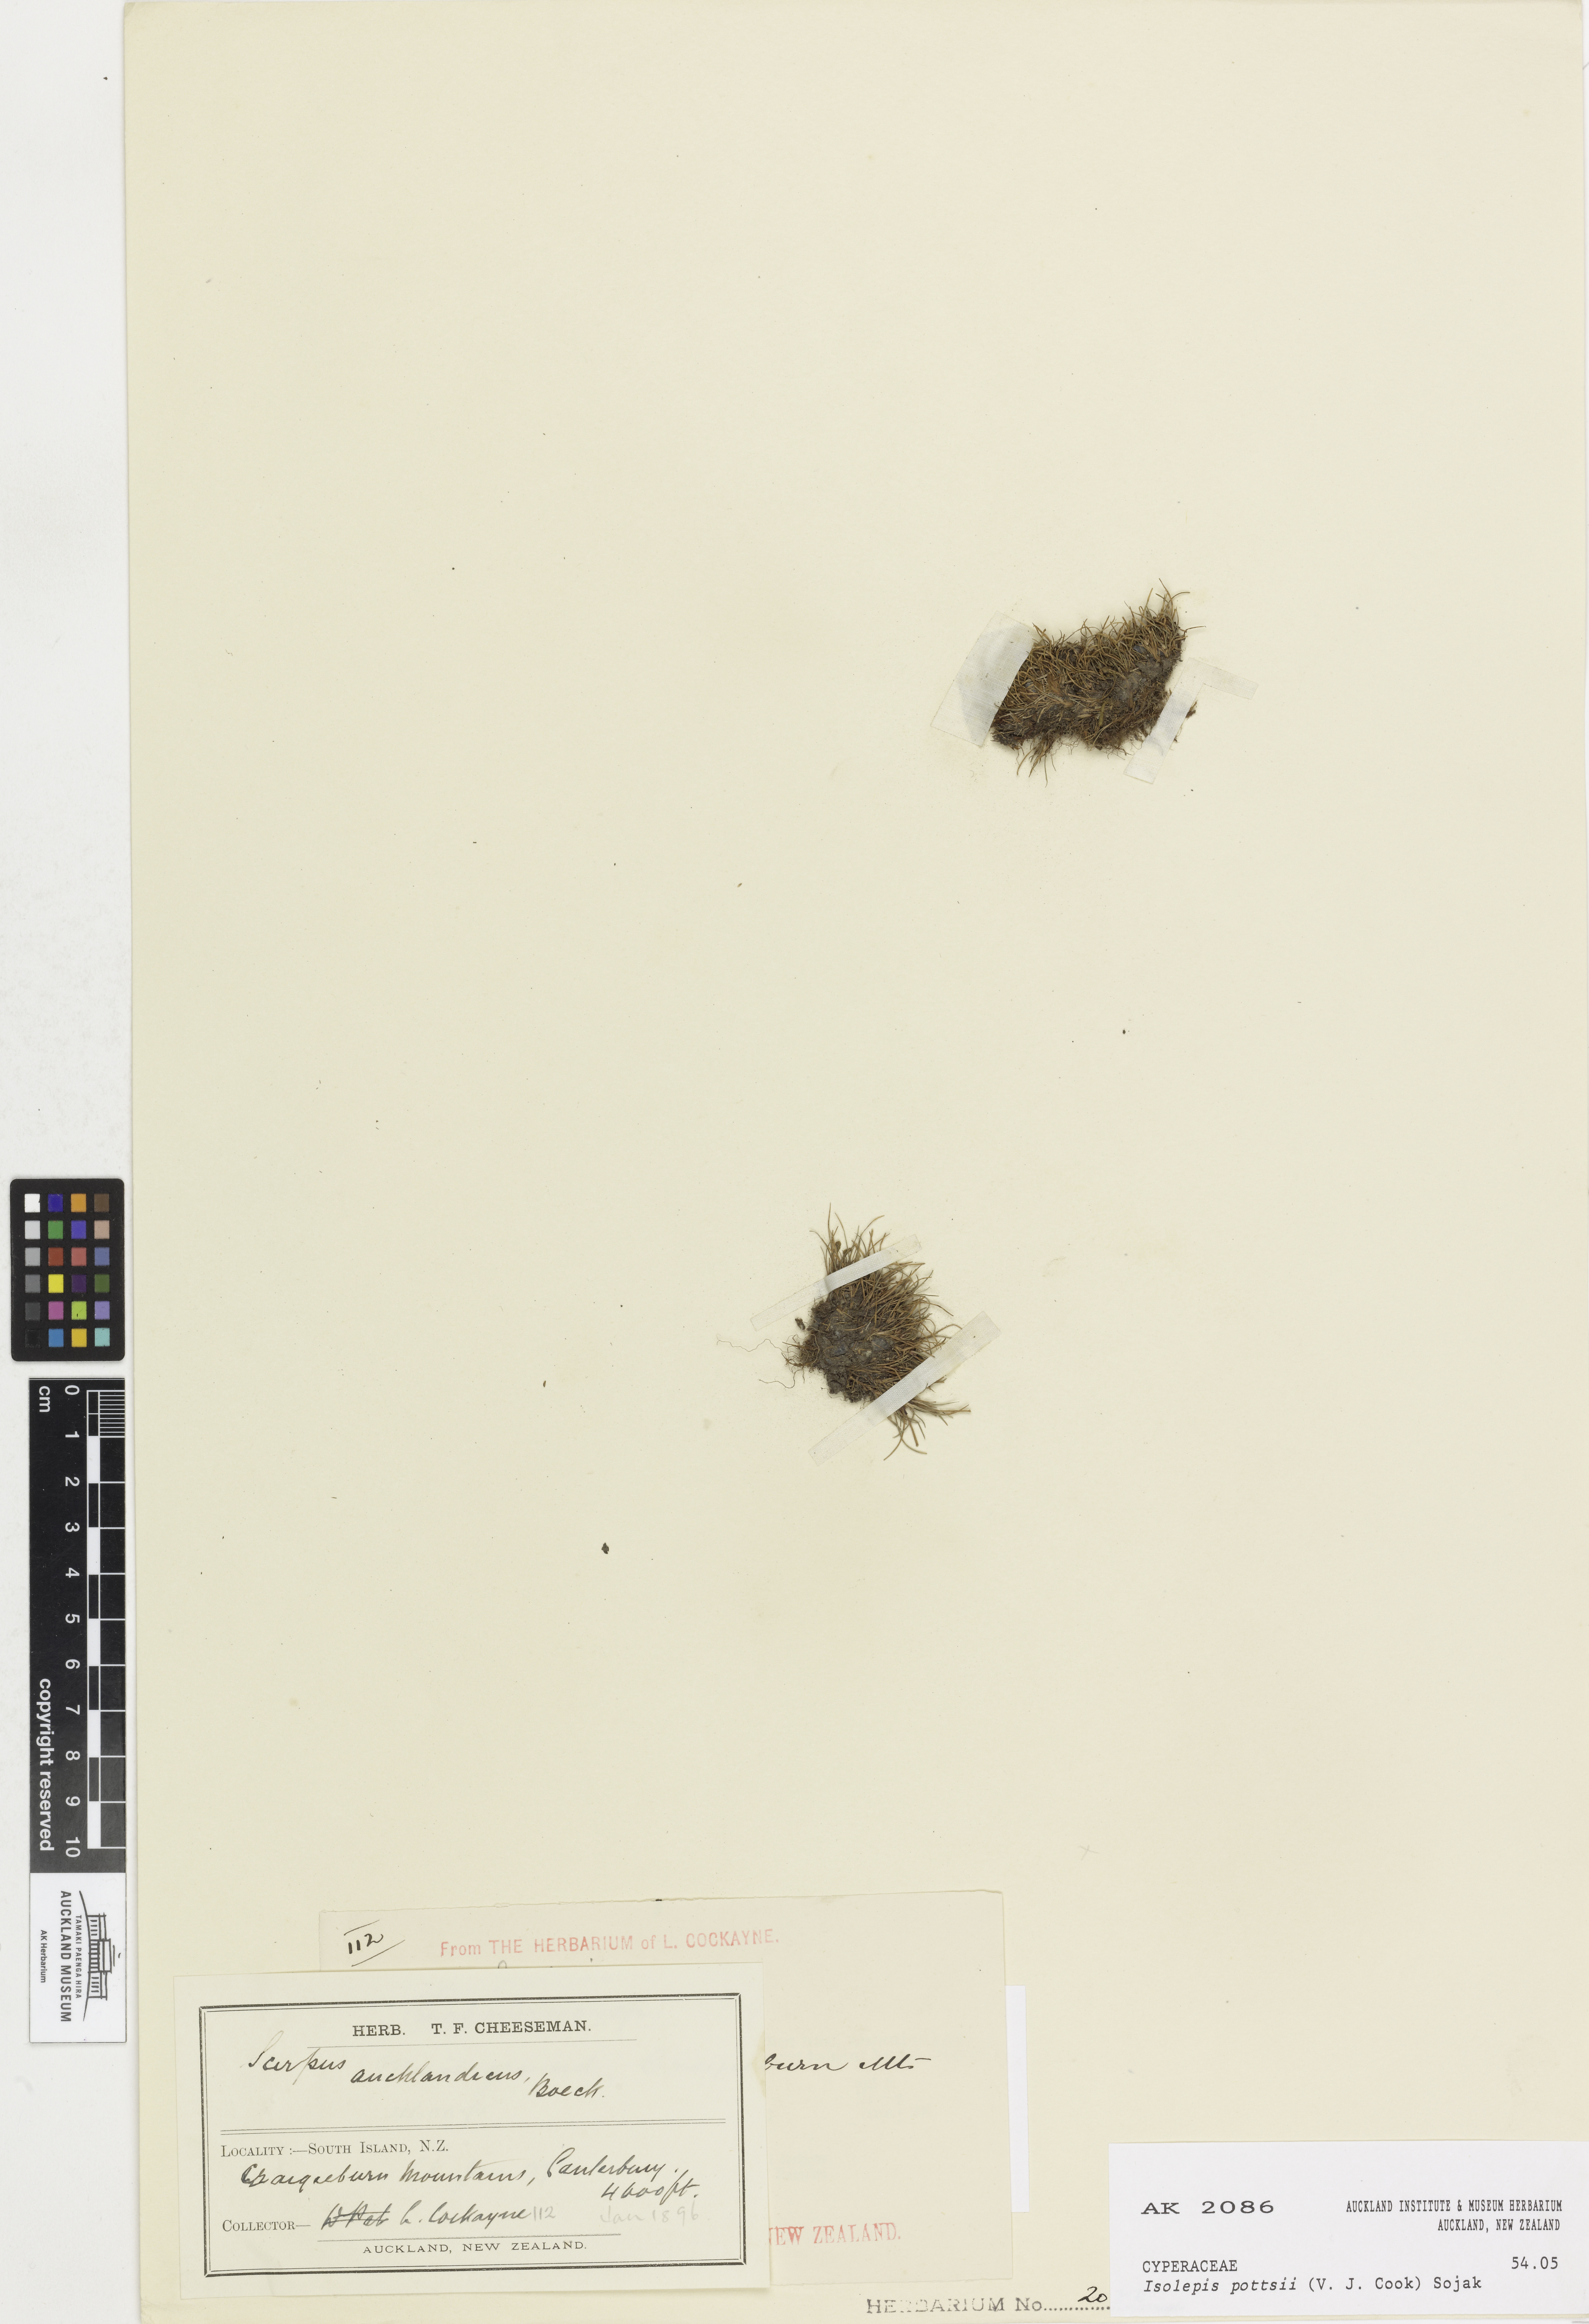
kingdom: Plantae
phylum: Tracheophyta
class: Liliopsida
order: Poales
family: Cyperaceae
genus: Isolepis
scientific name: Isolepis pottsii
